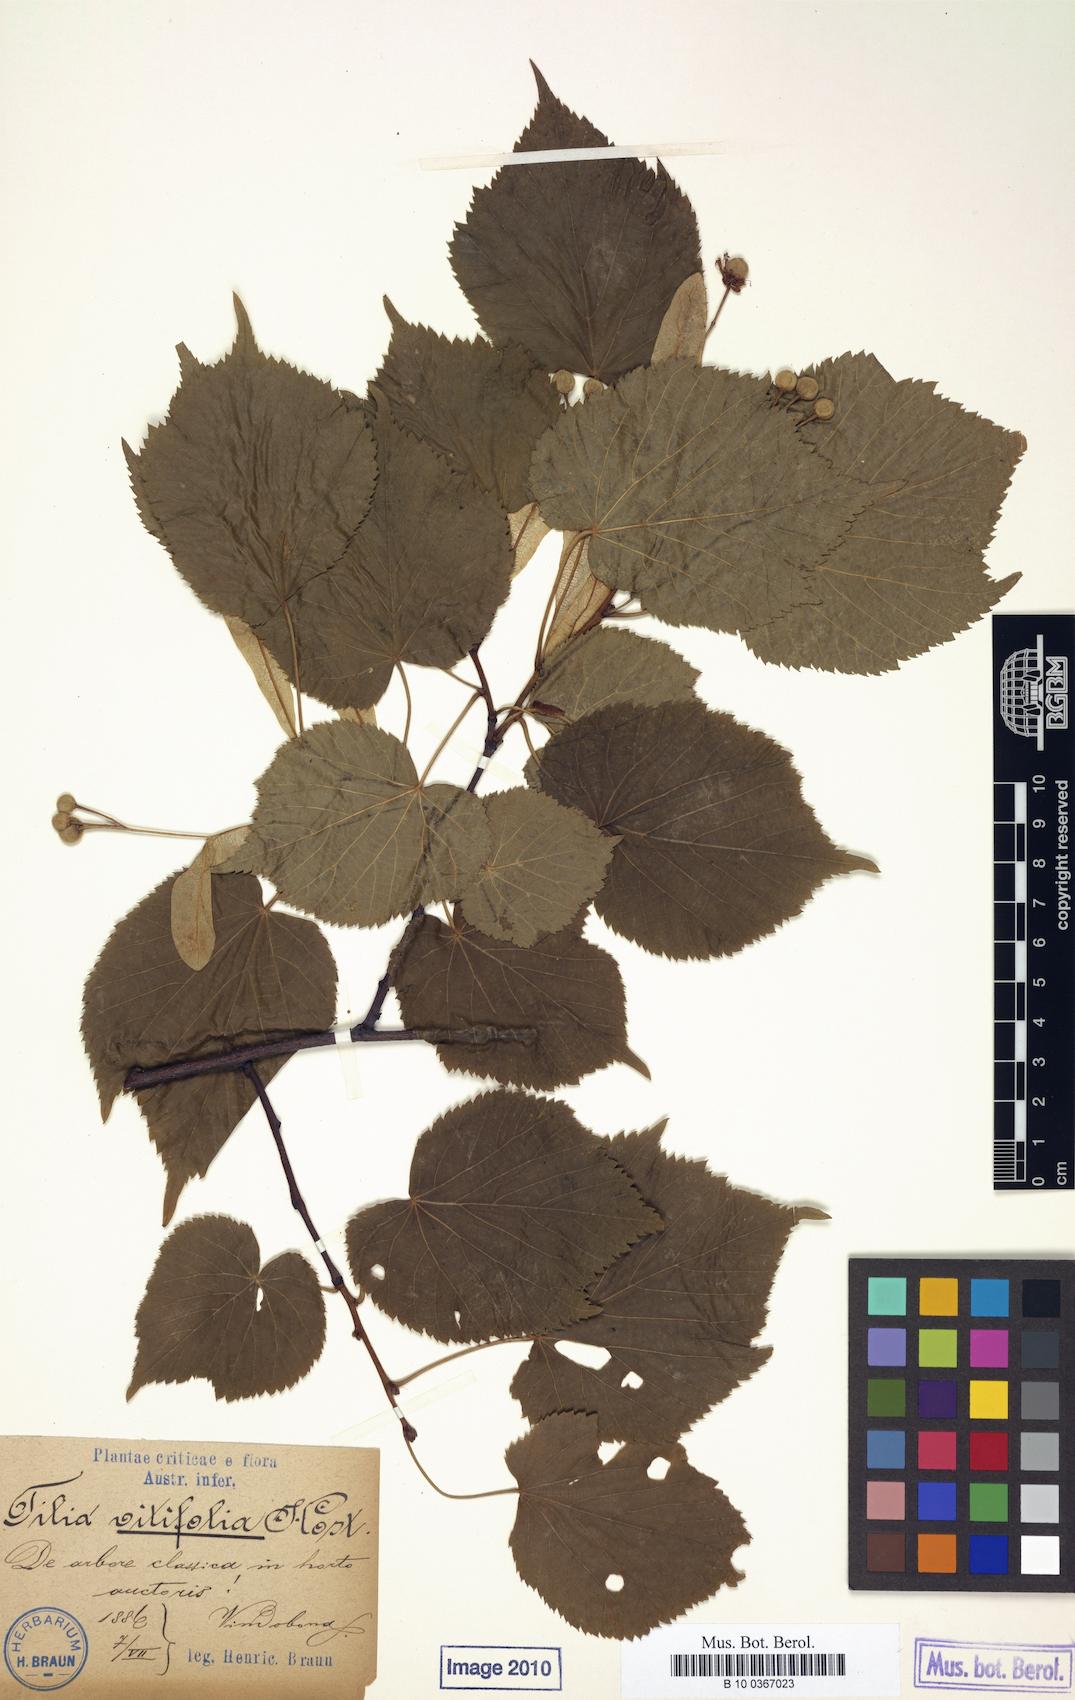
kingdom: Plantae
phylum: Tracheophyta
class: Magnoliopsida
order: Malvales
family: Malvaceae
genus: Tilia
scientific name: Tilia platyphyllos
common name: Large-leaved lime
